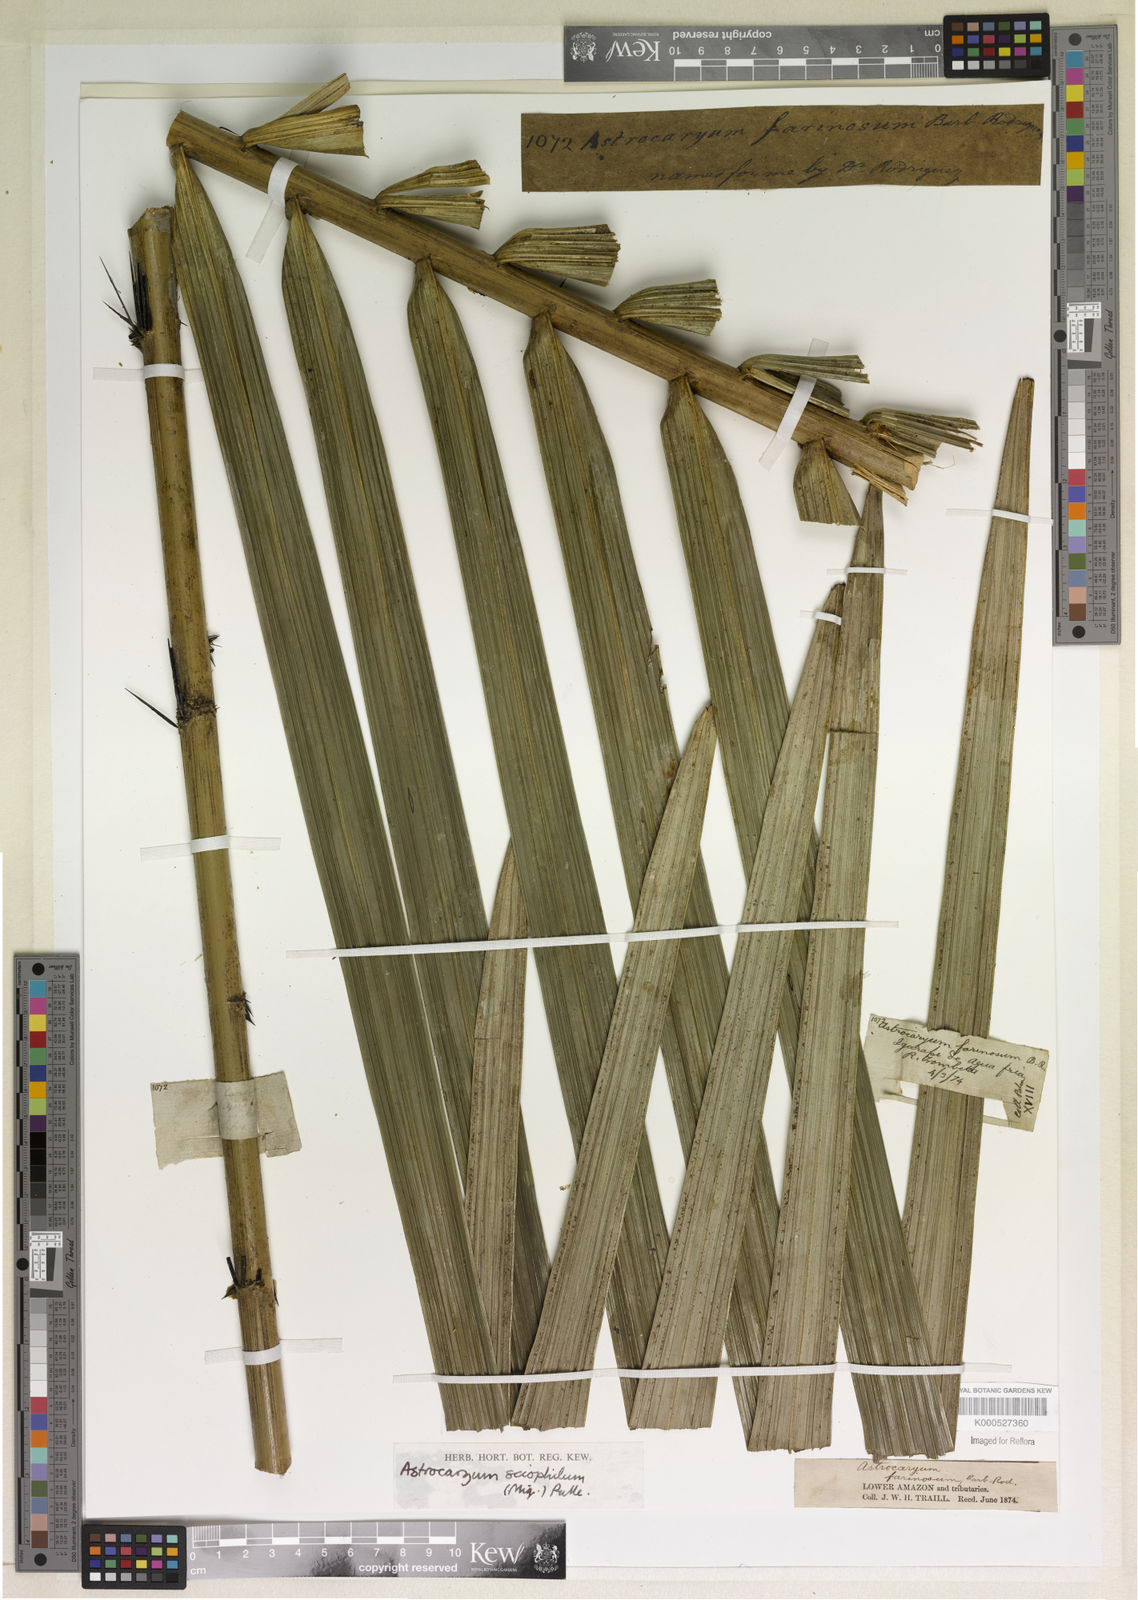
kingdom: Plantae
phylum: Tracheophyta
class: Liliopsida
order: Arecales
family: Arecaceae
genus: Astrocaryum
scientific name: Astrocaryum sciophilum
